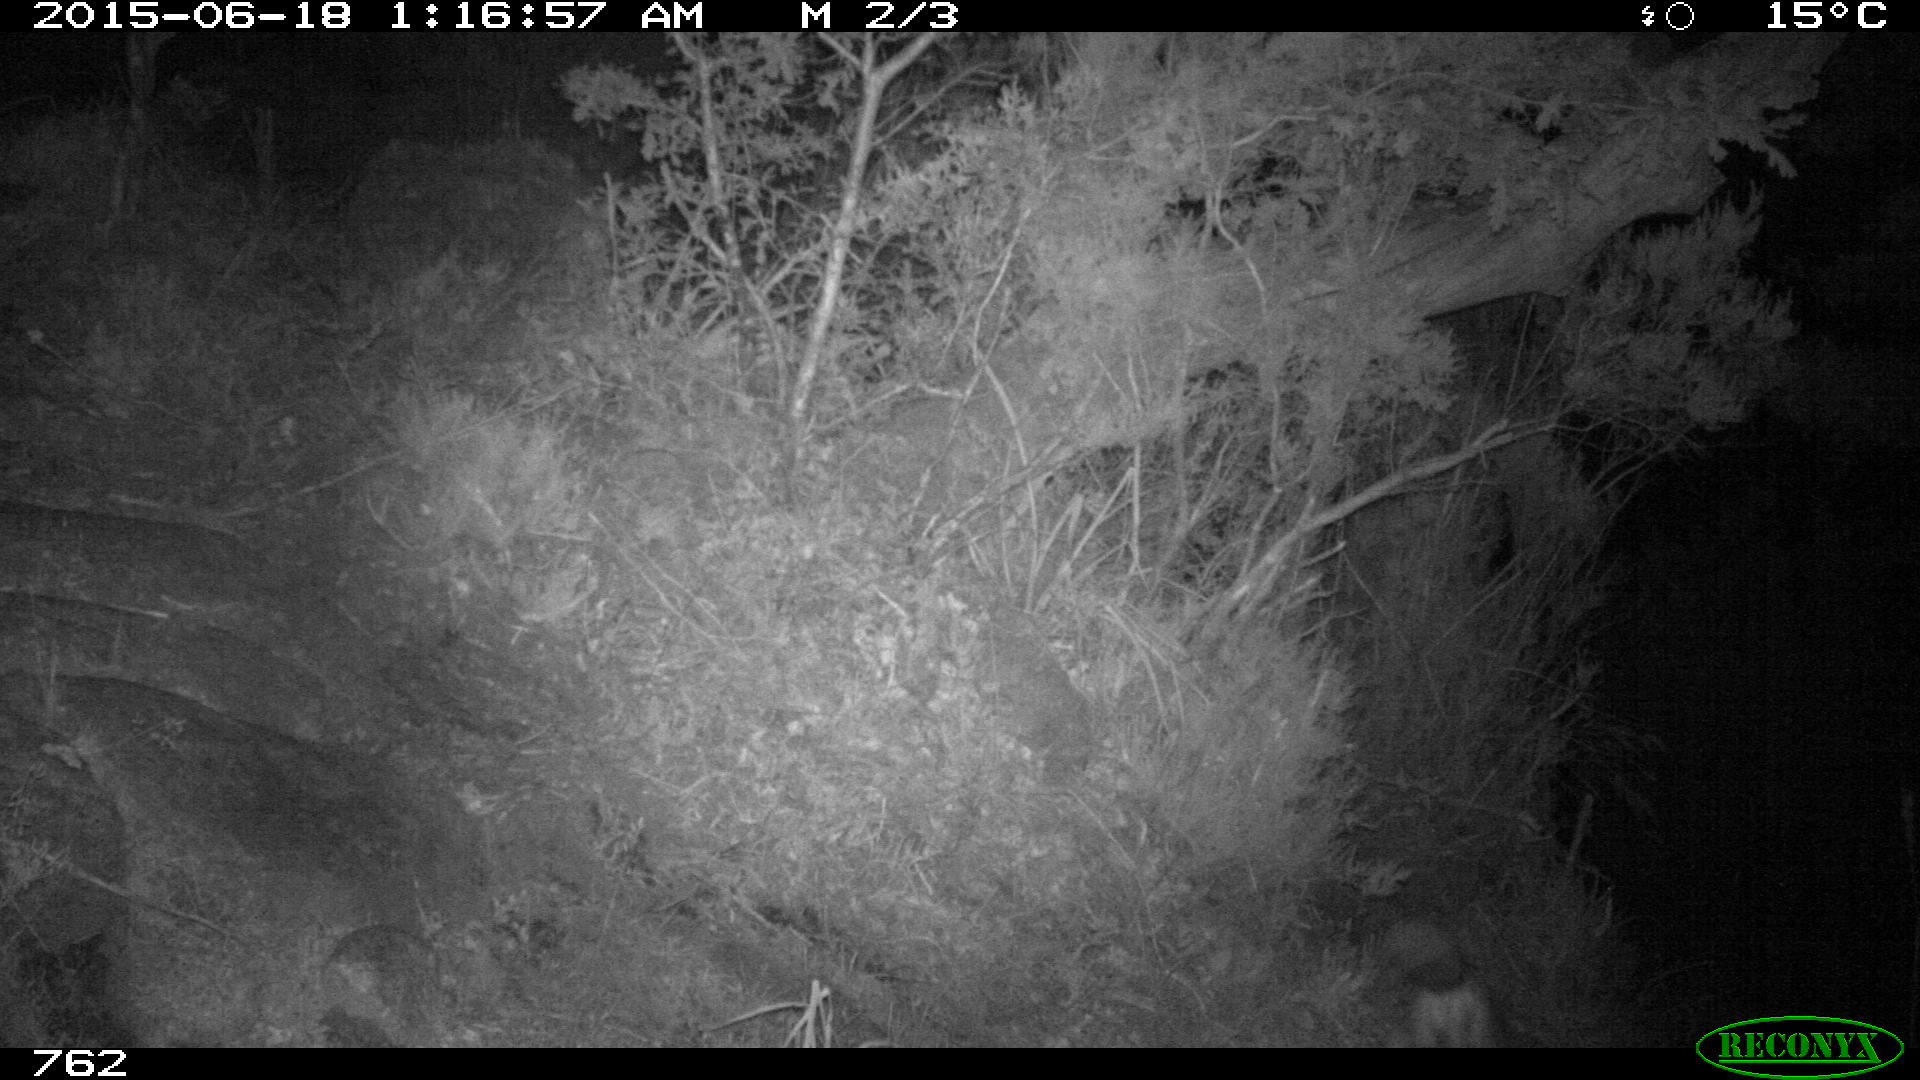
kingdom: Animalia
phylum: Chordata
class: Mammalia
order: Carnivora
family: Canidae
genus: Vulpes
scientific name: Vulpes vulpes
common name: Red fox
